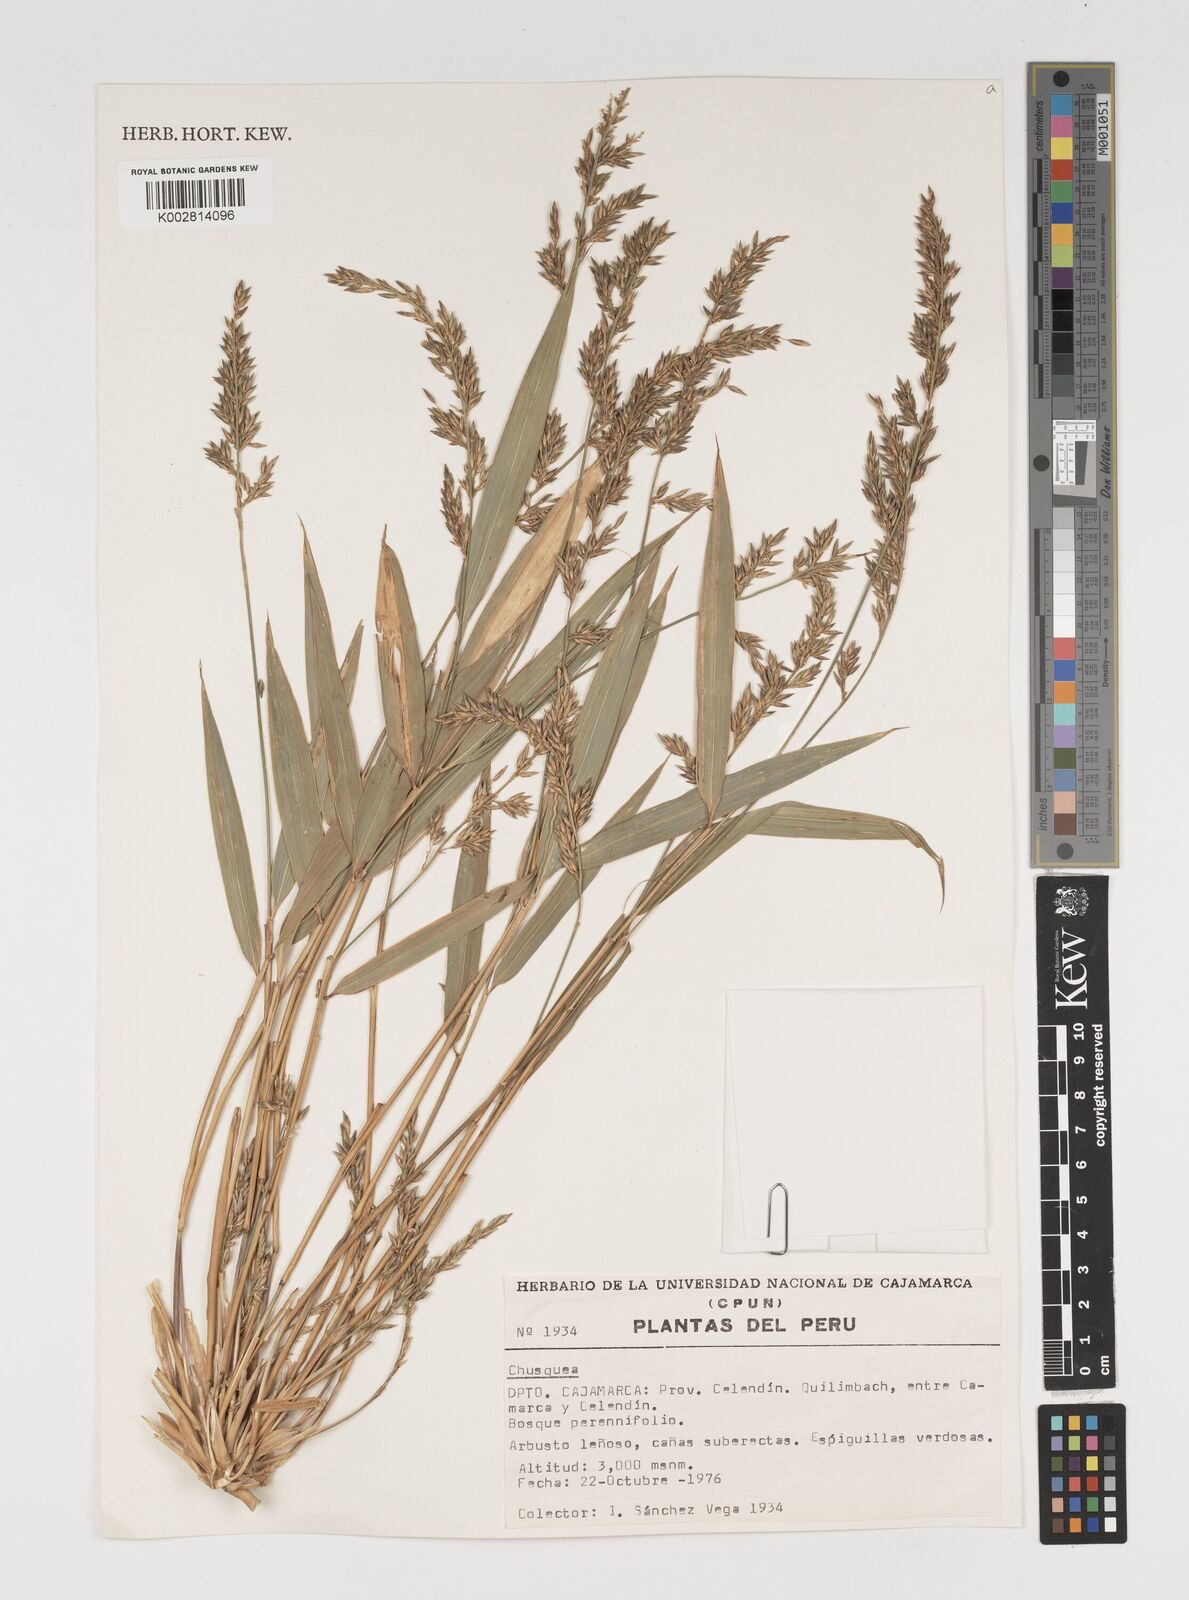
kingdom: Plantae
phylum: Tracheophyta
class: Liliopsida
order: Poales
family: Poaceae
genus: Chusquea
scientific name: Chusquea
